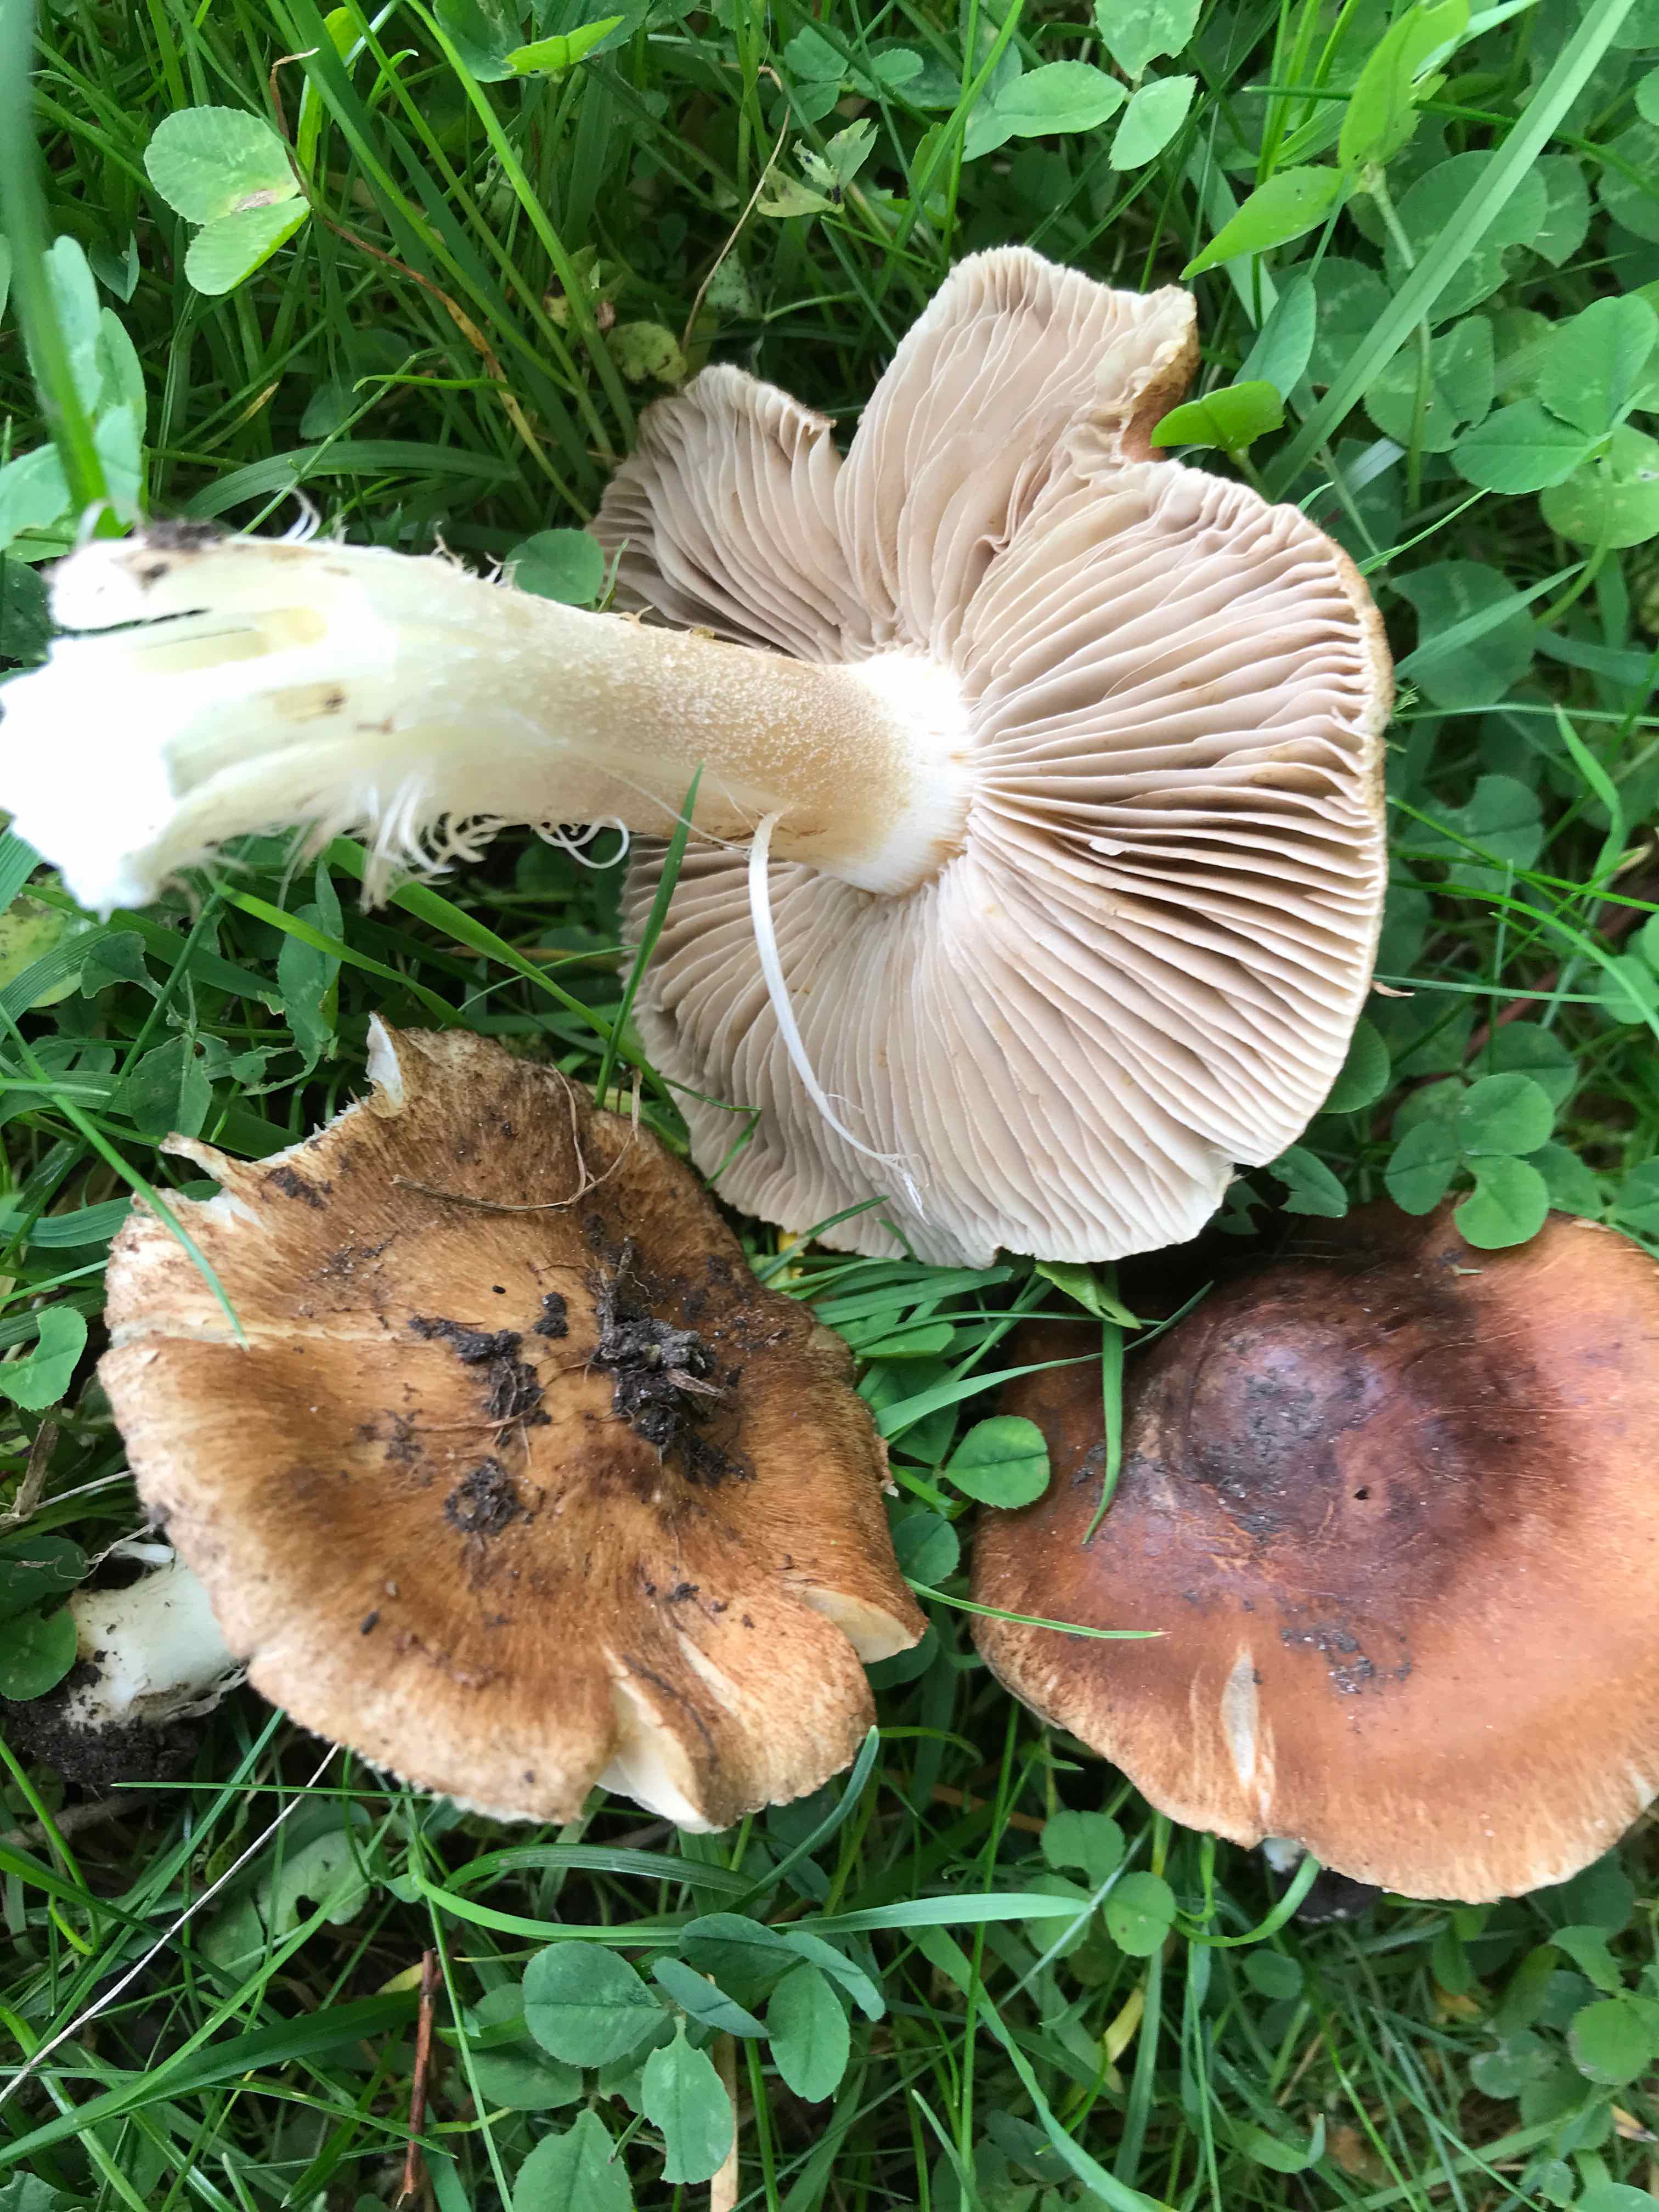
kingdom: Fungi
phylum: Basidiomycota
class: Agaricomycetes
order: Agaricales
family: Cortinariaceae
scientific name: Cortinariaceae
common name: slørhatfamilien
